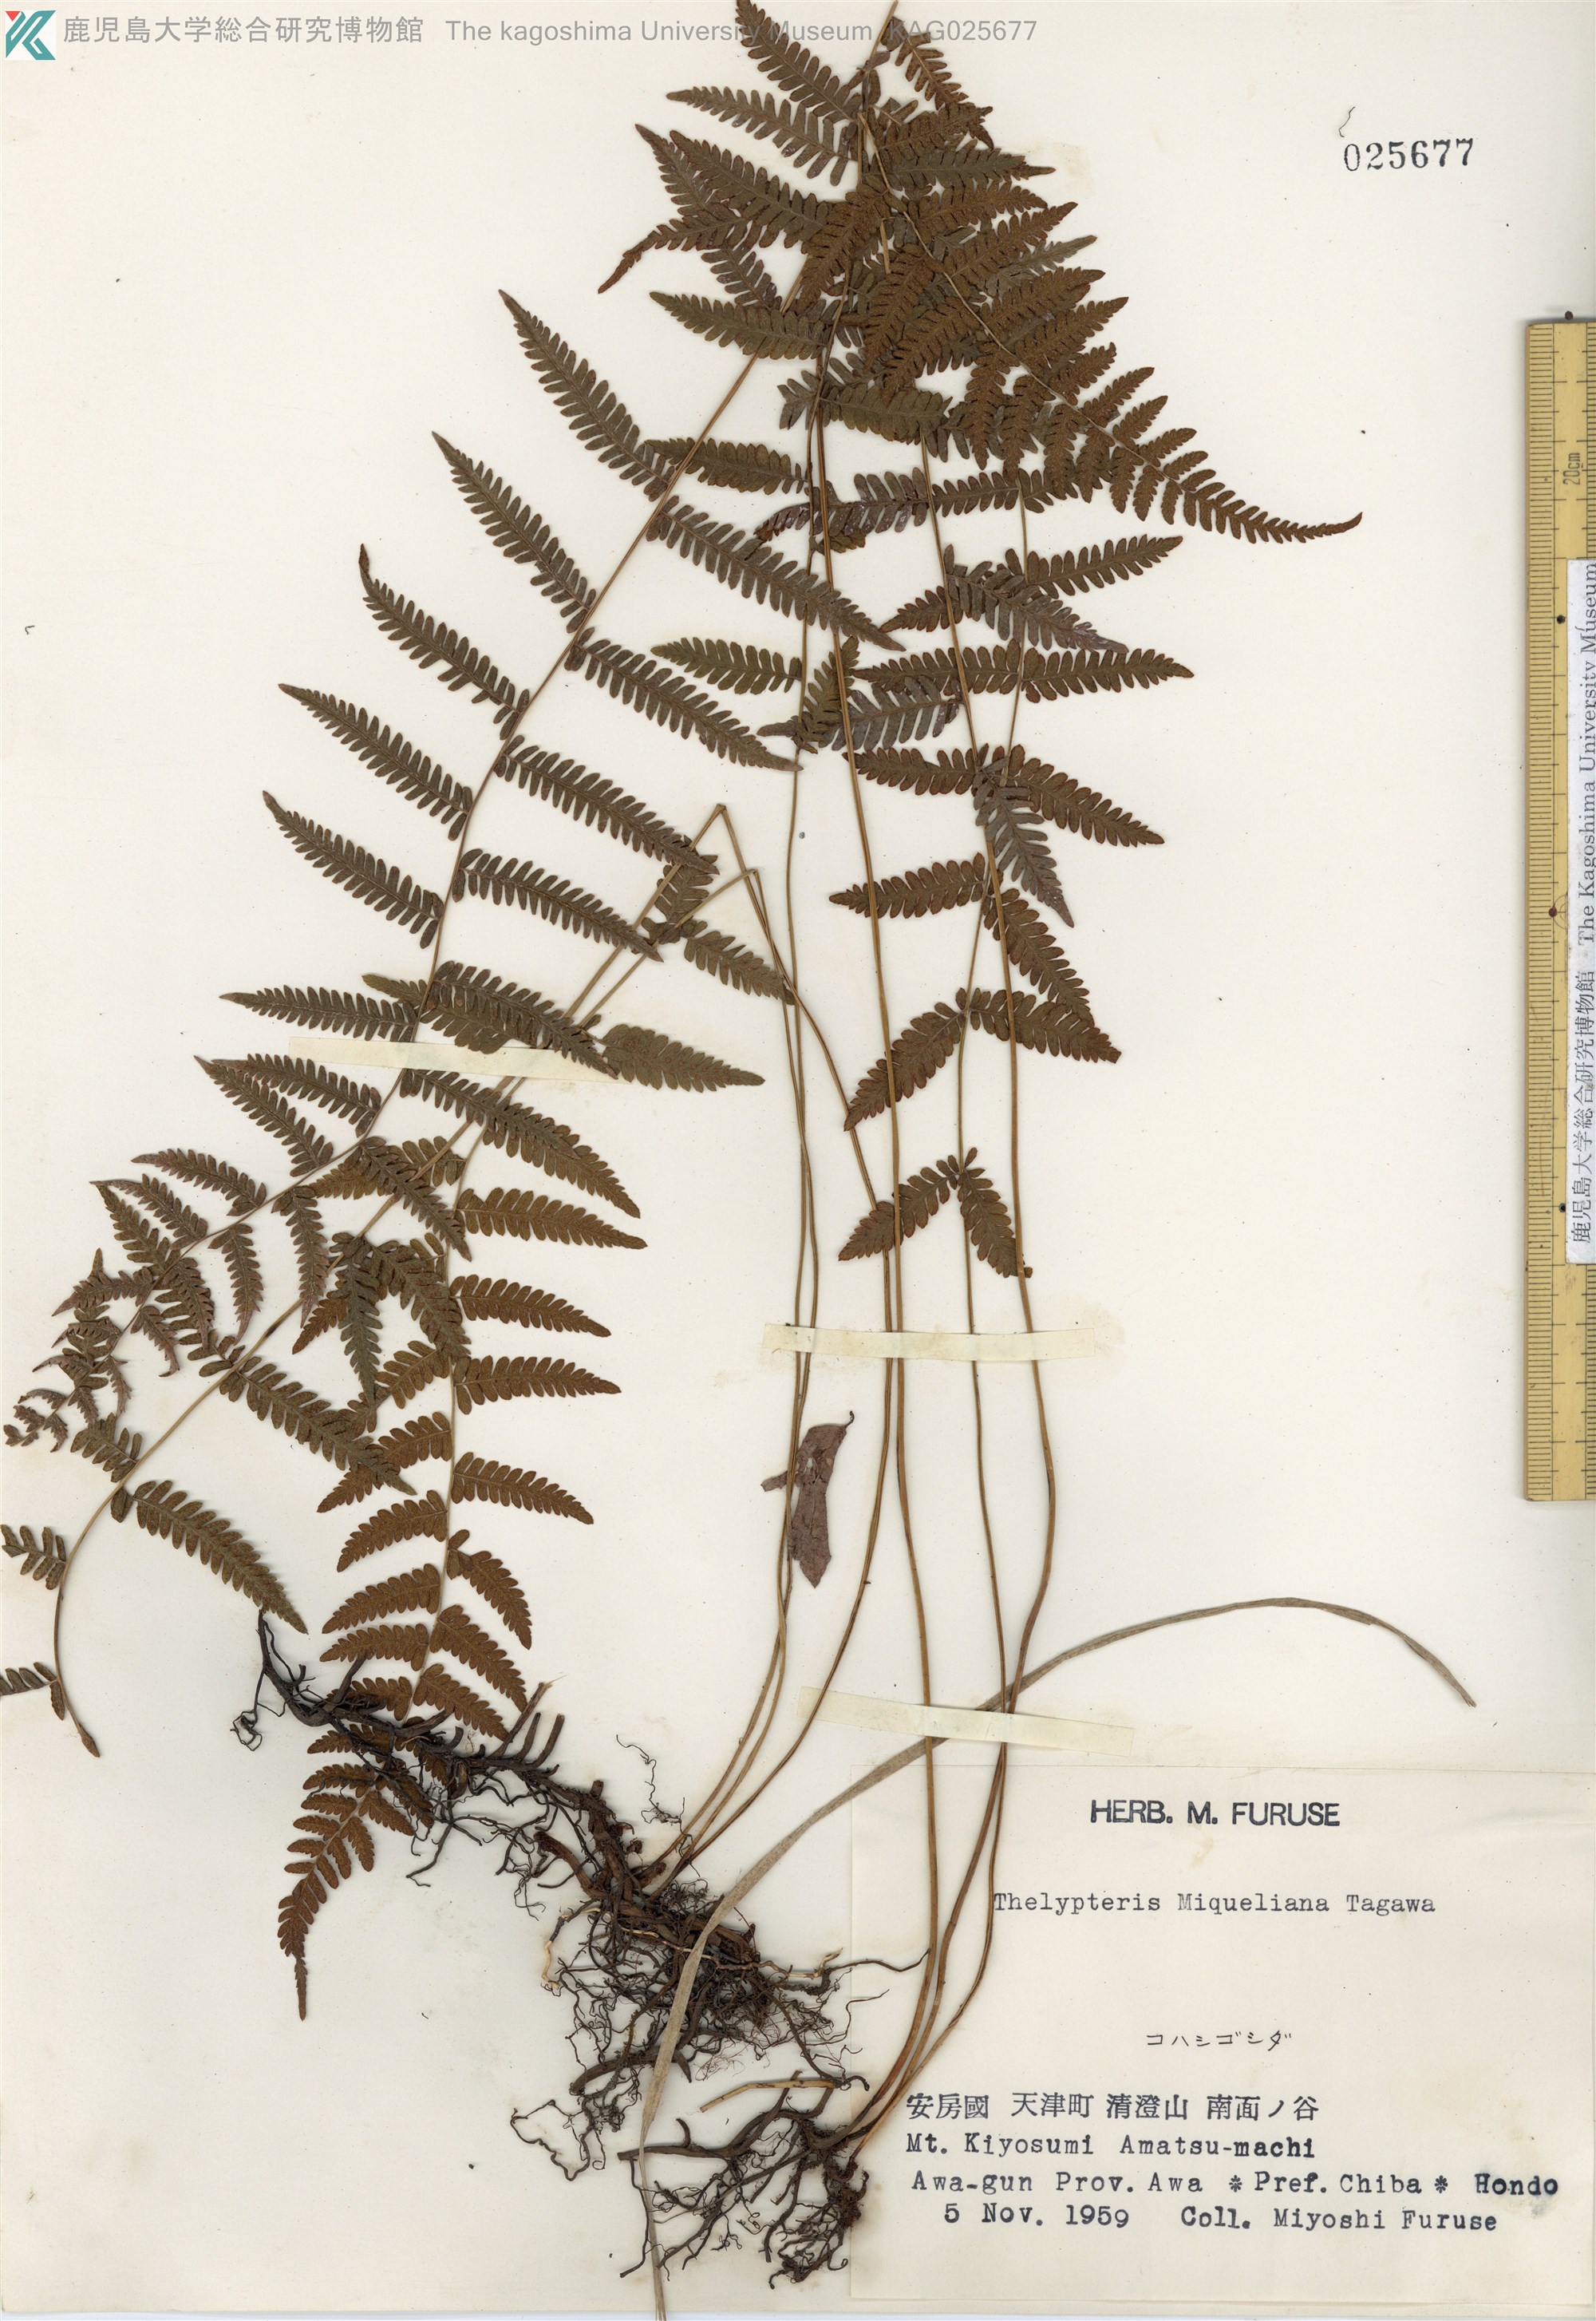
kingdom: Plantae
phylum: Tracheophyta
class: Polypodiopsida
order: Polypodiales
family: Thelypteridaceae
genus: Amauropelta
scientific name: Amauropelta angustifrons
